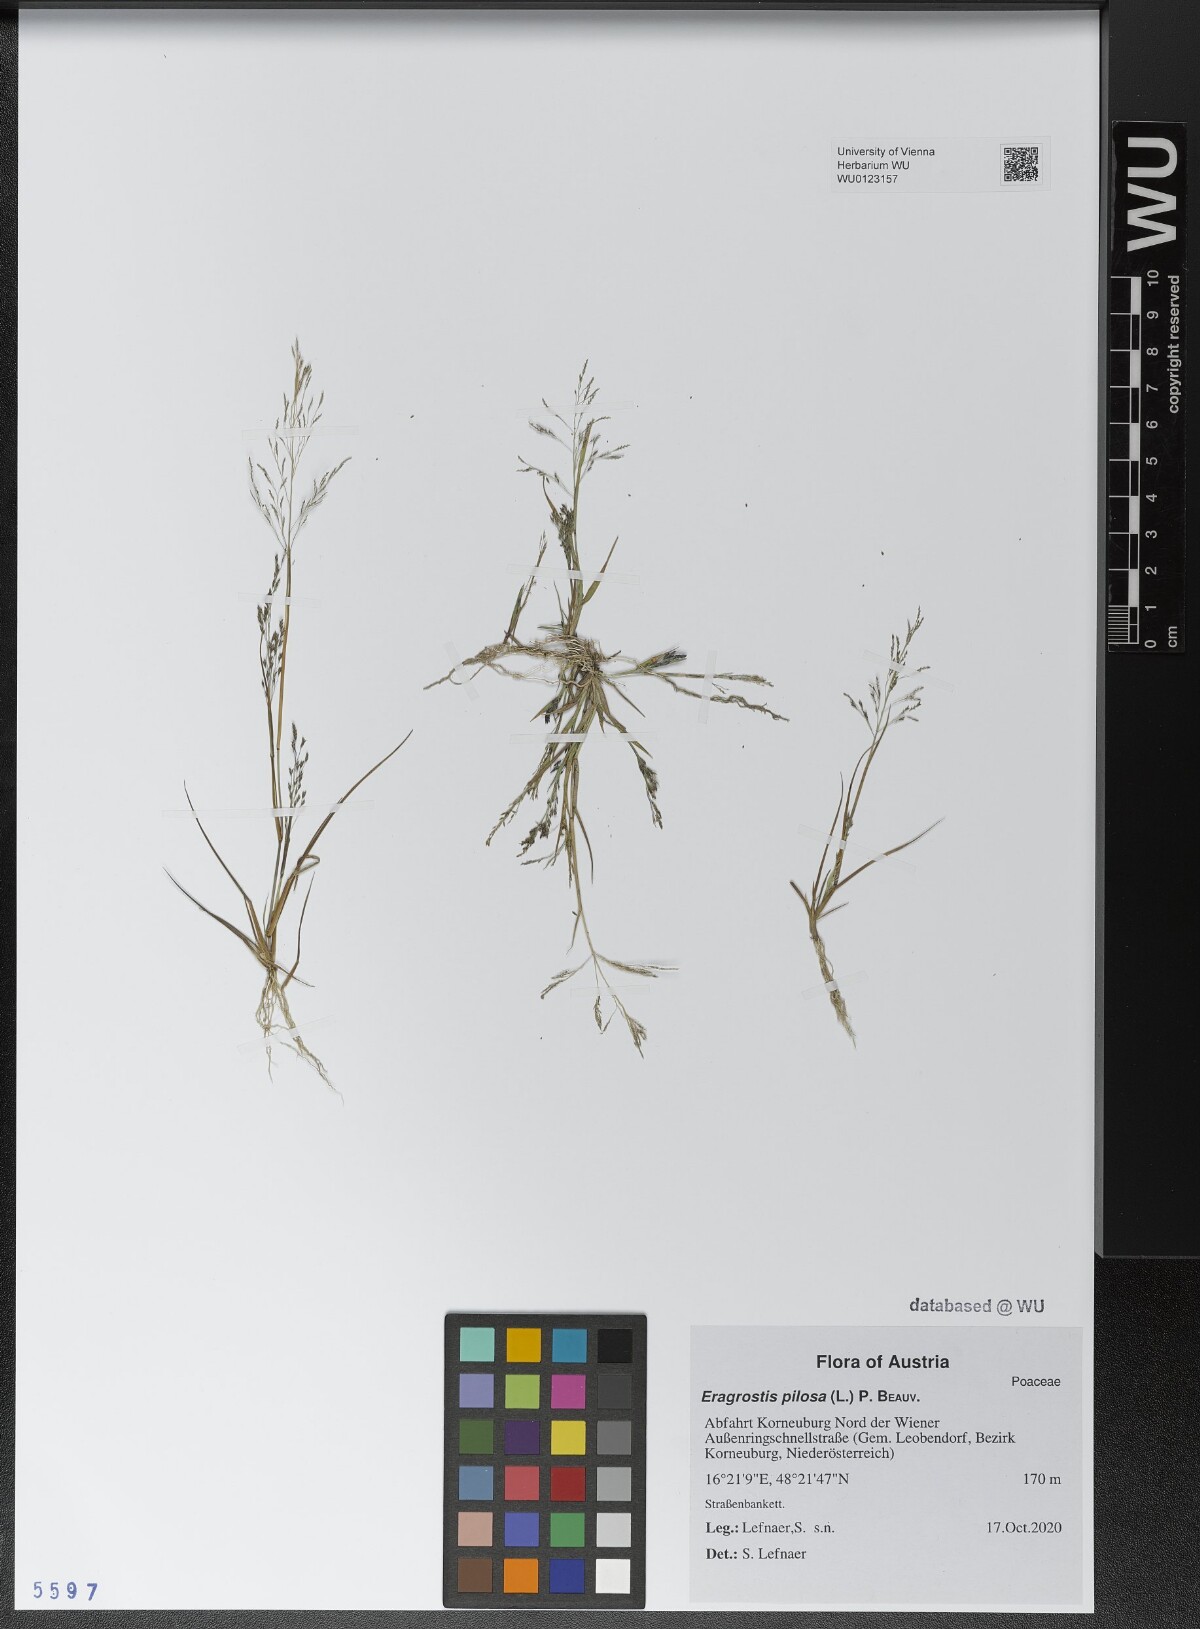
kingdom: Plantae
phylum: Tracheophyta
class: Liliopsida
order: Poales
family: Poaceae
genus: Eragrostis
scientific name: Eragrostis pilosa
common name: Indian lovegrass
